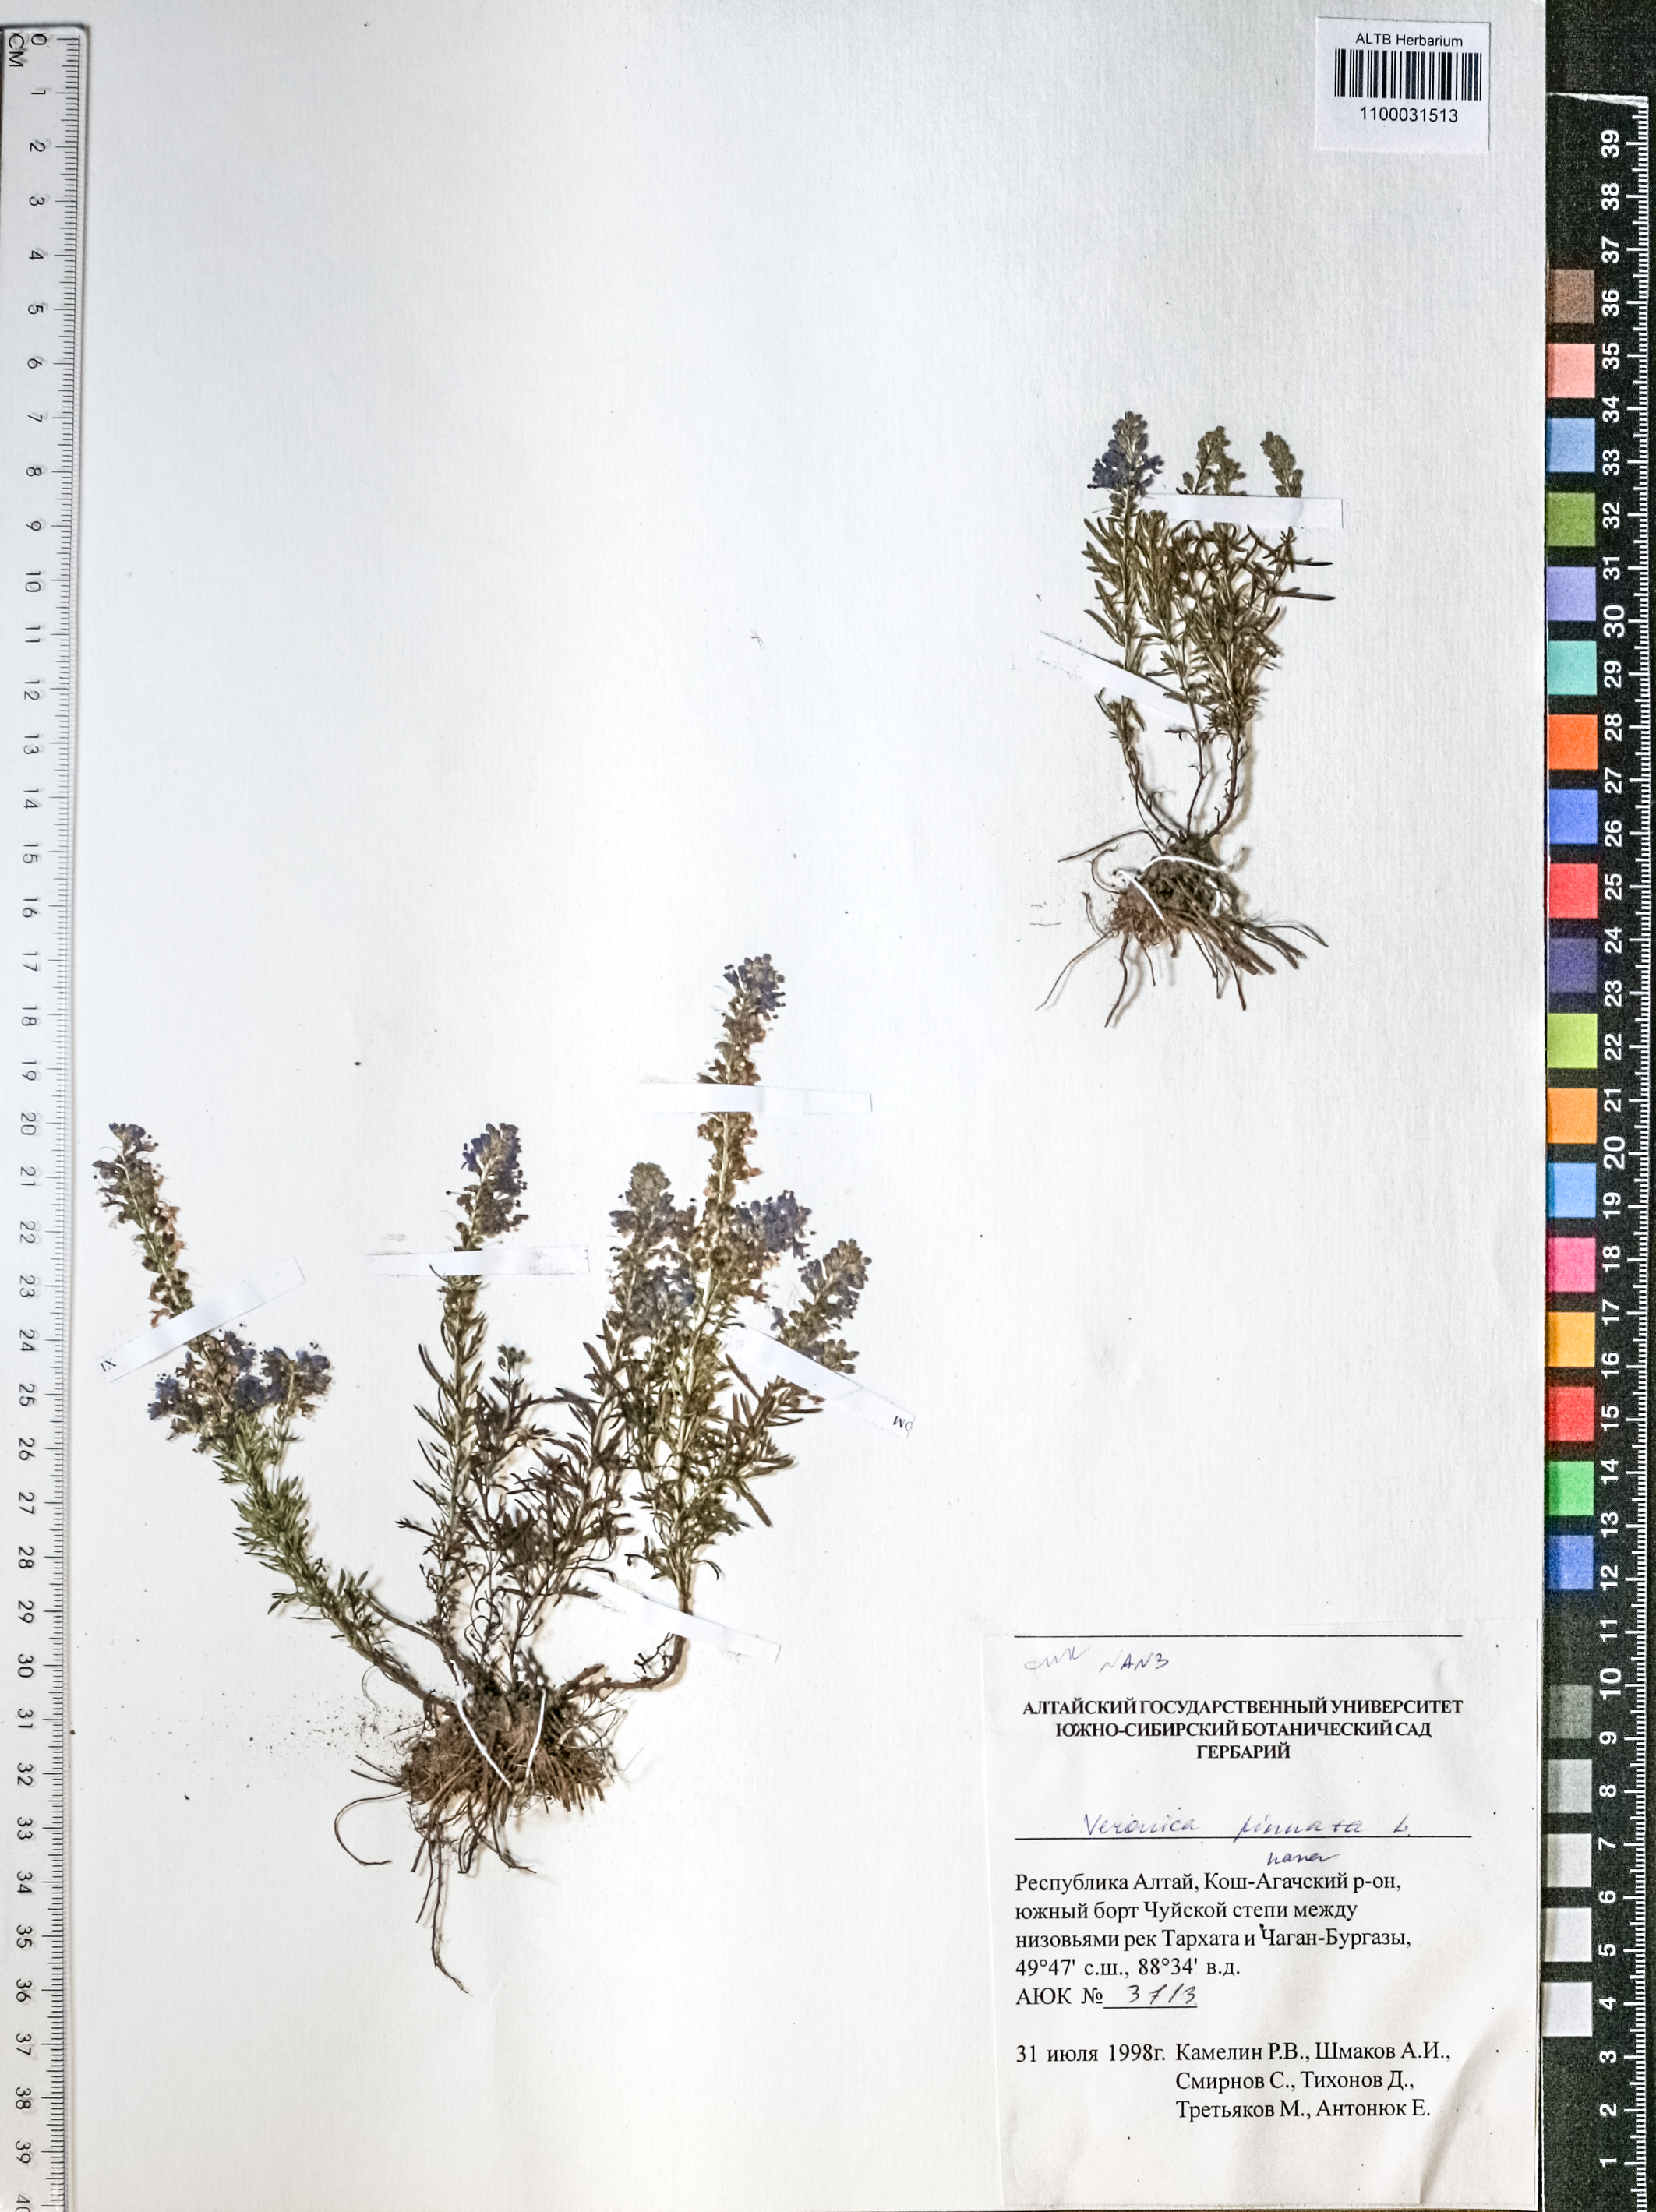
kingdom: Plantae
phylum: Tracheophyta
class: Magnoliopsida
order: Lamiales
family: Plantaginaceae
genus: Veronica
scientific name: Veronica pinnata
